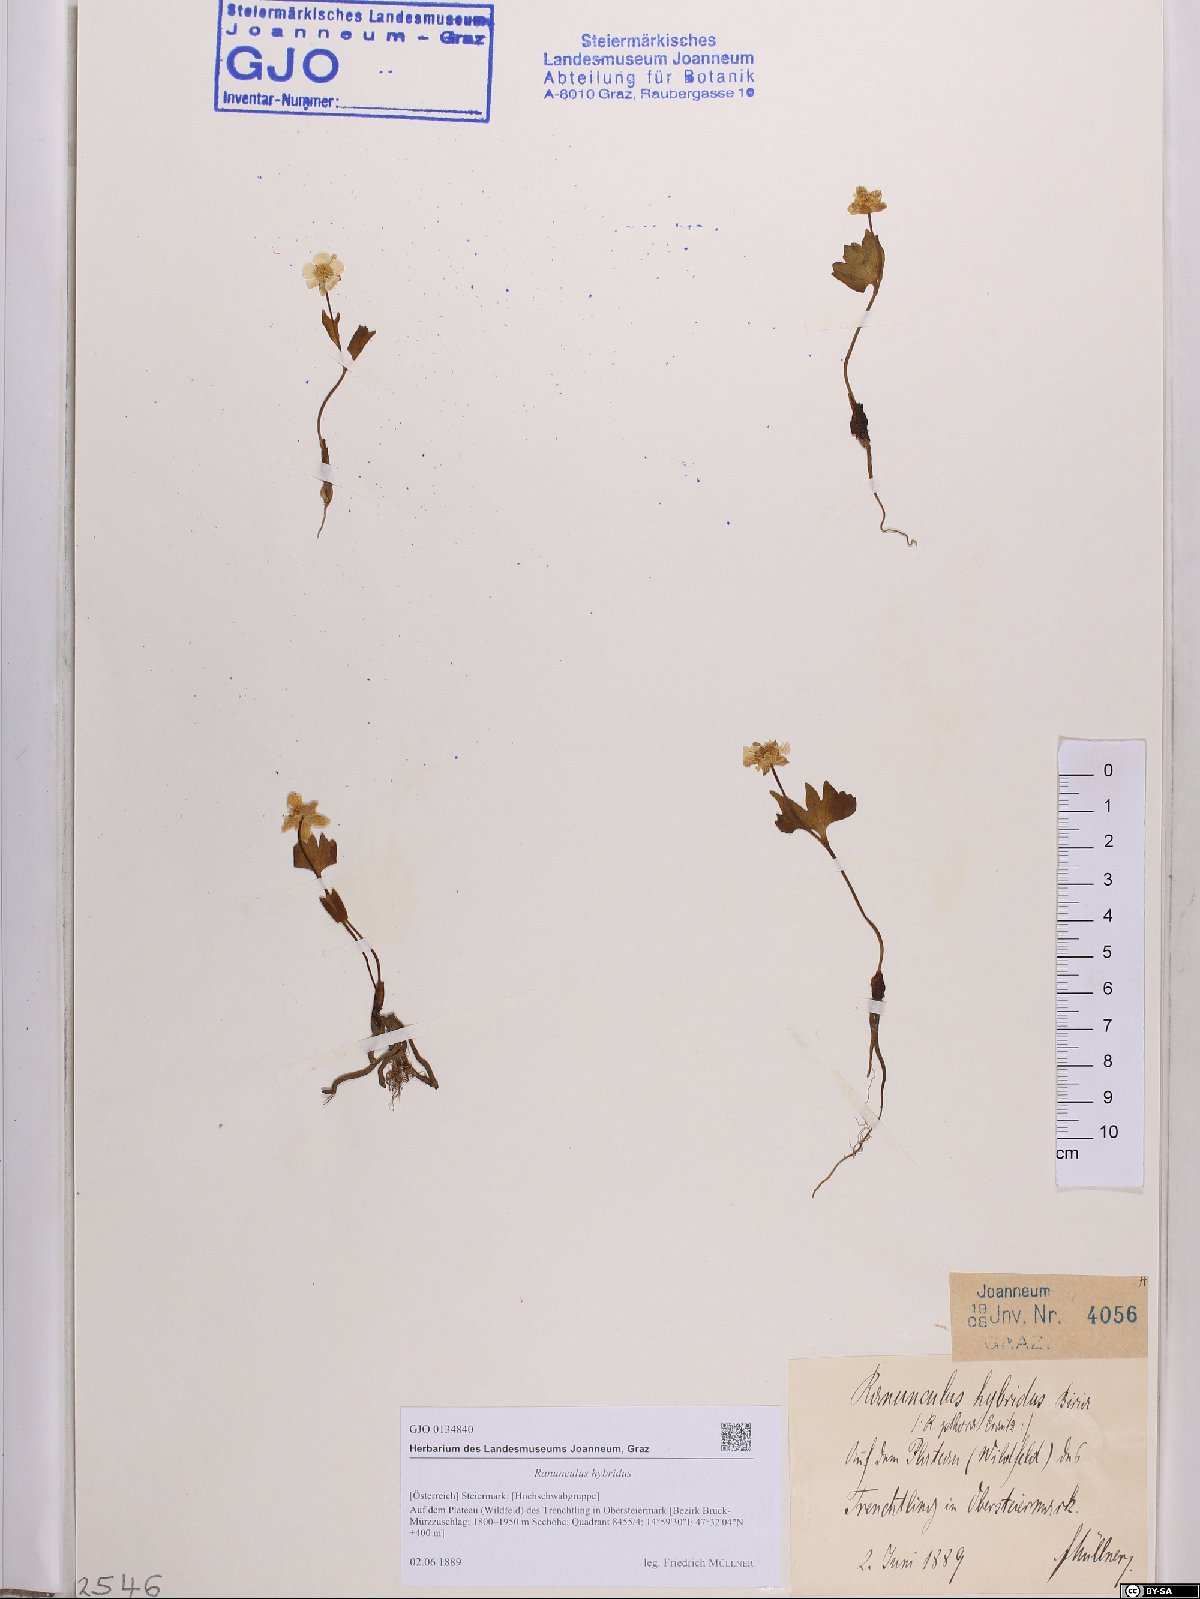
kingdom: Plantae
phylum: Tracheophyta
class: Magnoliopsida
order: Ranunculales
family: Ranunculaceae
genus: Ranunculus
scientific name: Ranunculus hybridus
